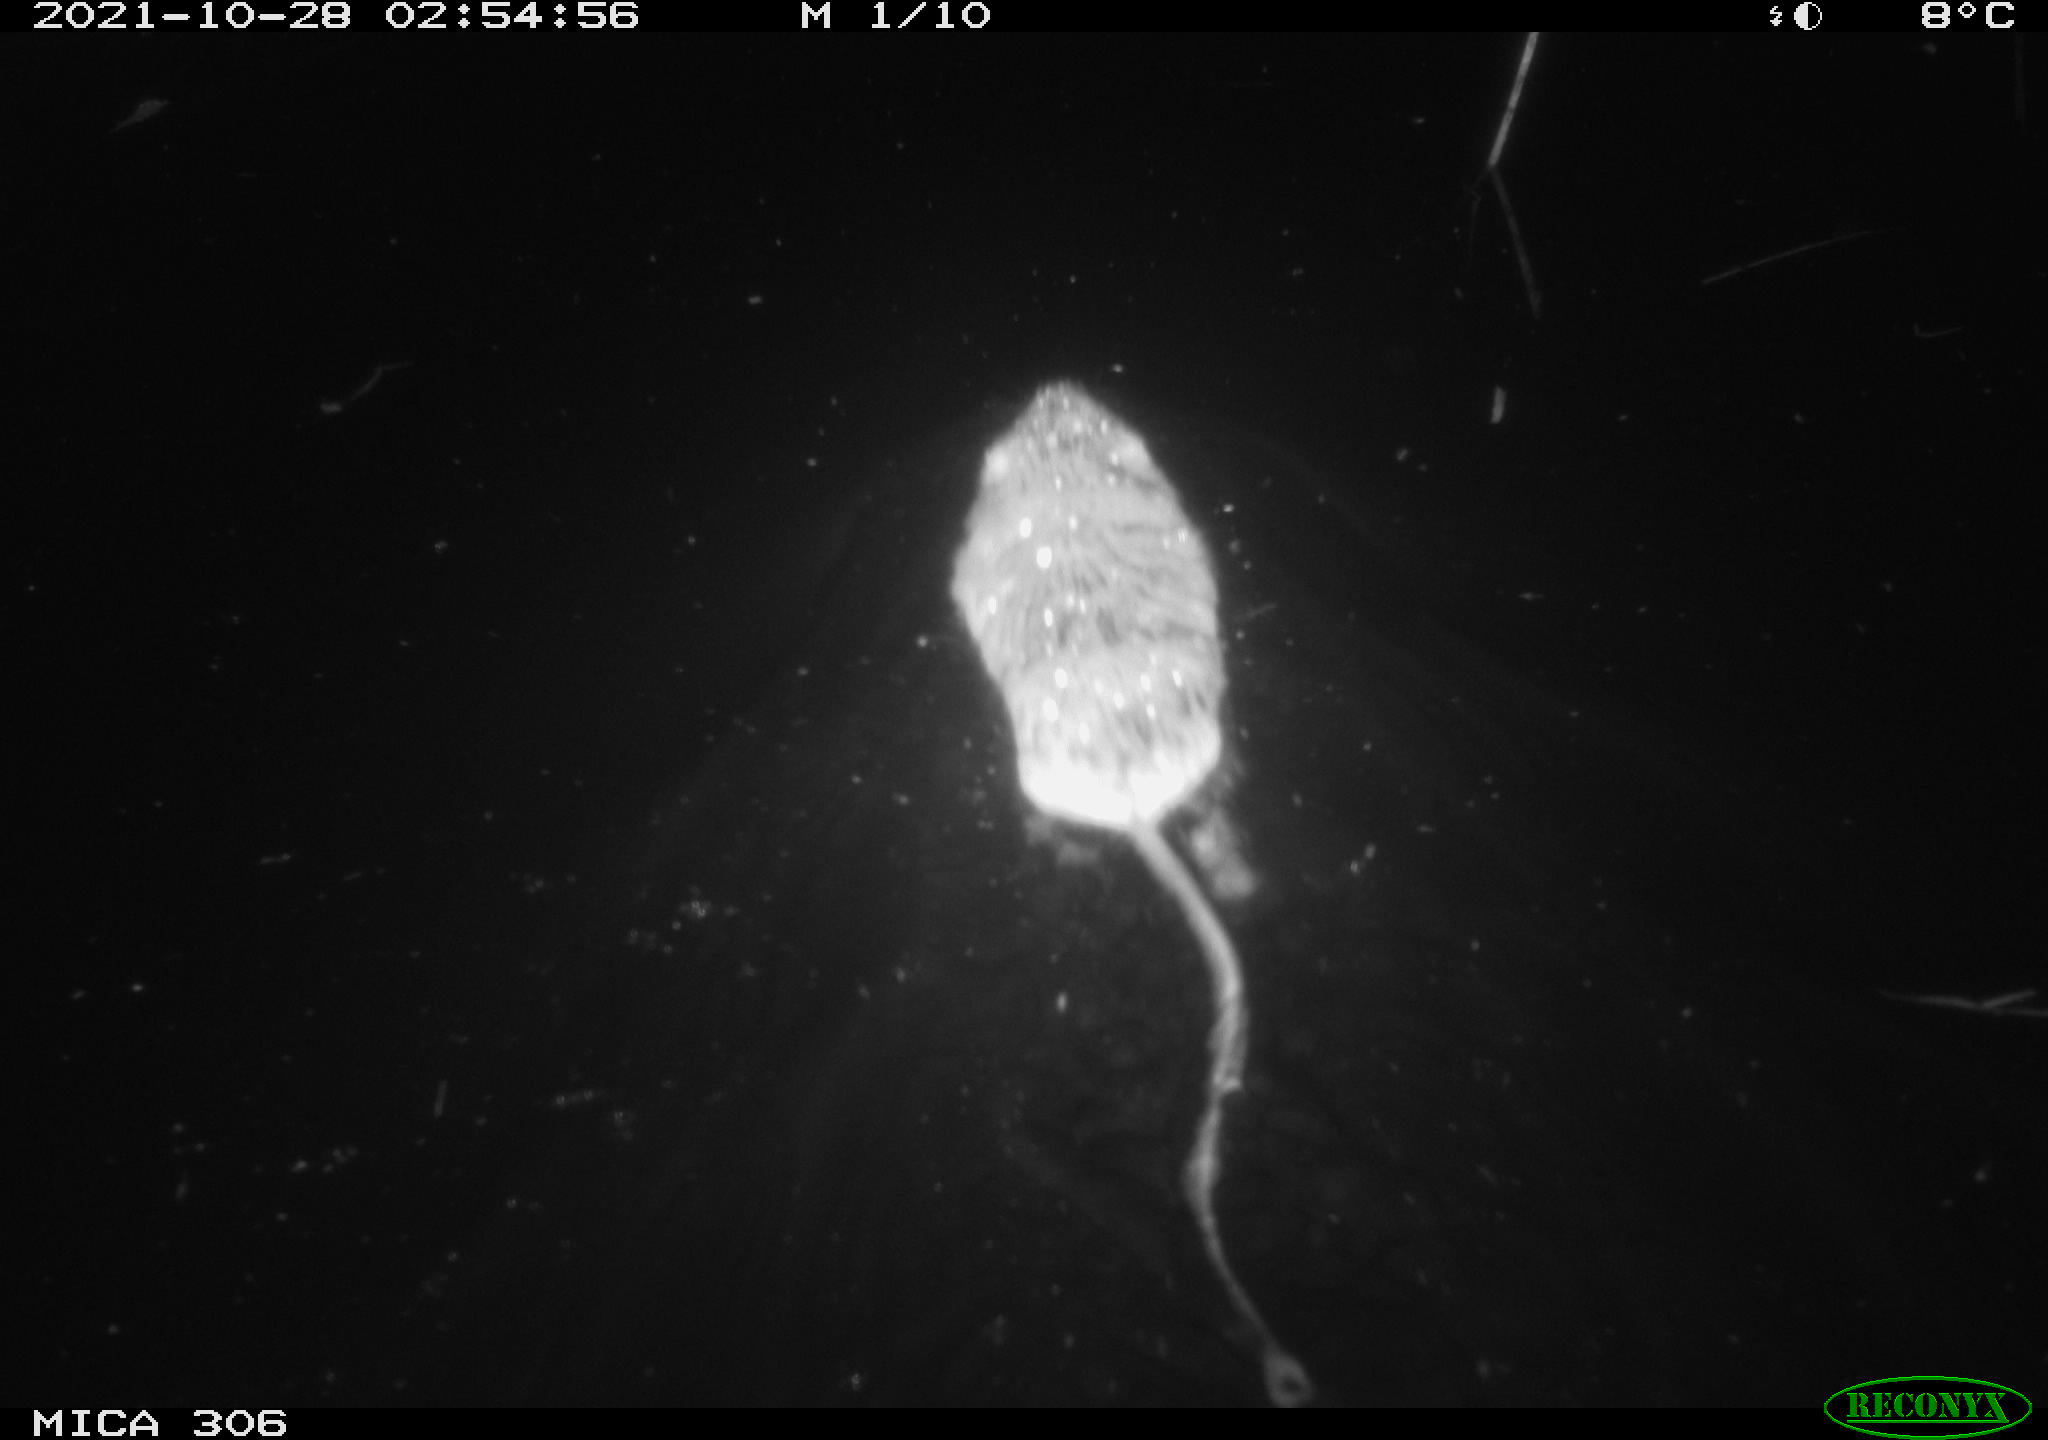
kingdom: Animalia
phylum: Chordata
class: Mammalia
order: Rodentia
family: Cricetidae
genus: Ondatra
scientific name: Ondatra zibethicus
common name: Muskrat
